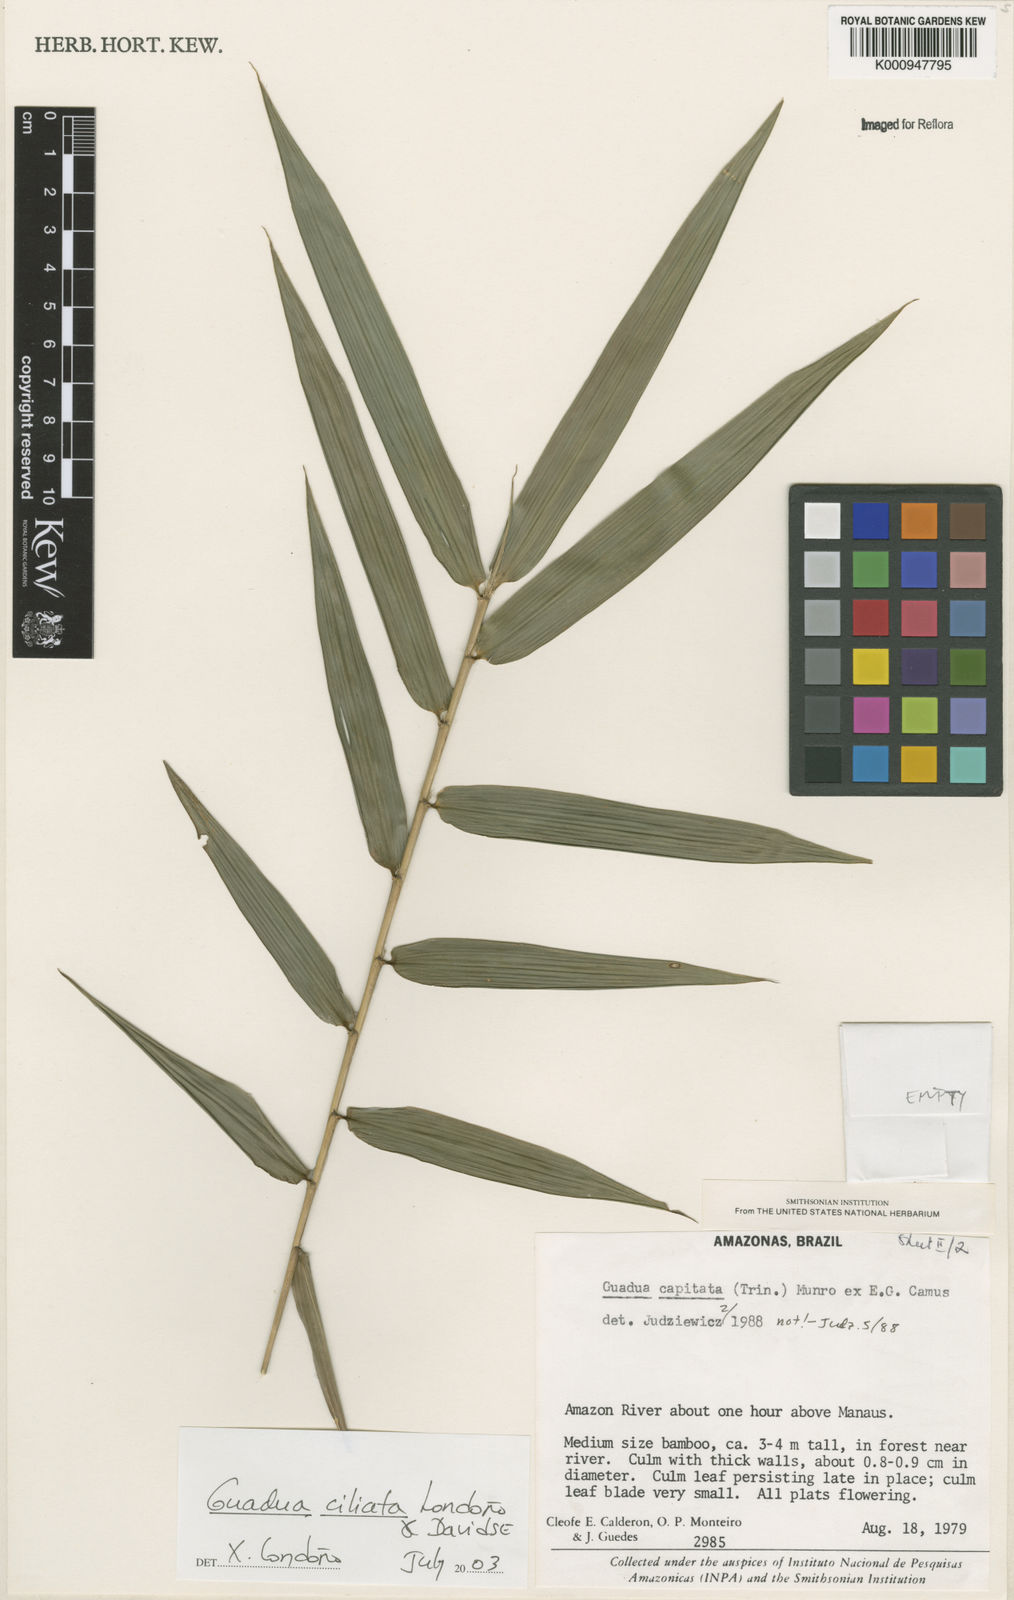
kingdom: Plantae
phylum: Tracheophyta
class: Liliopsida
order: Poales
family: Poaceae
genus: Guadua
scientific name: Guadua
